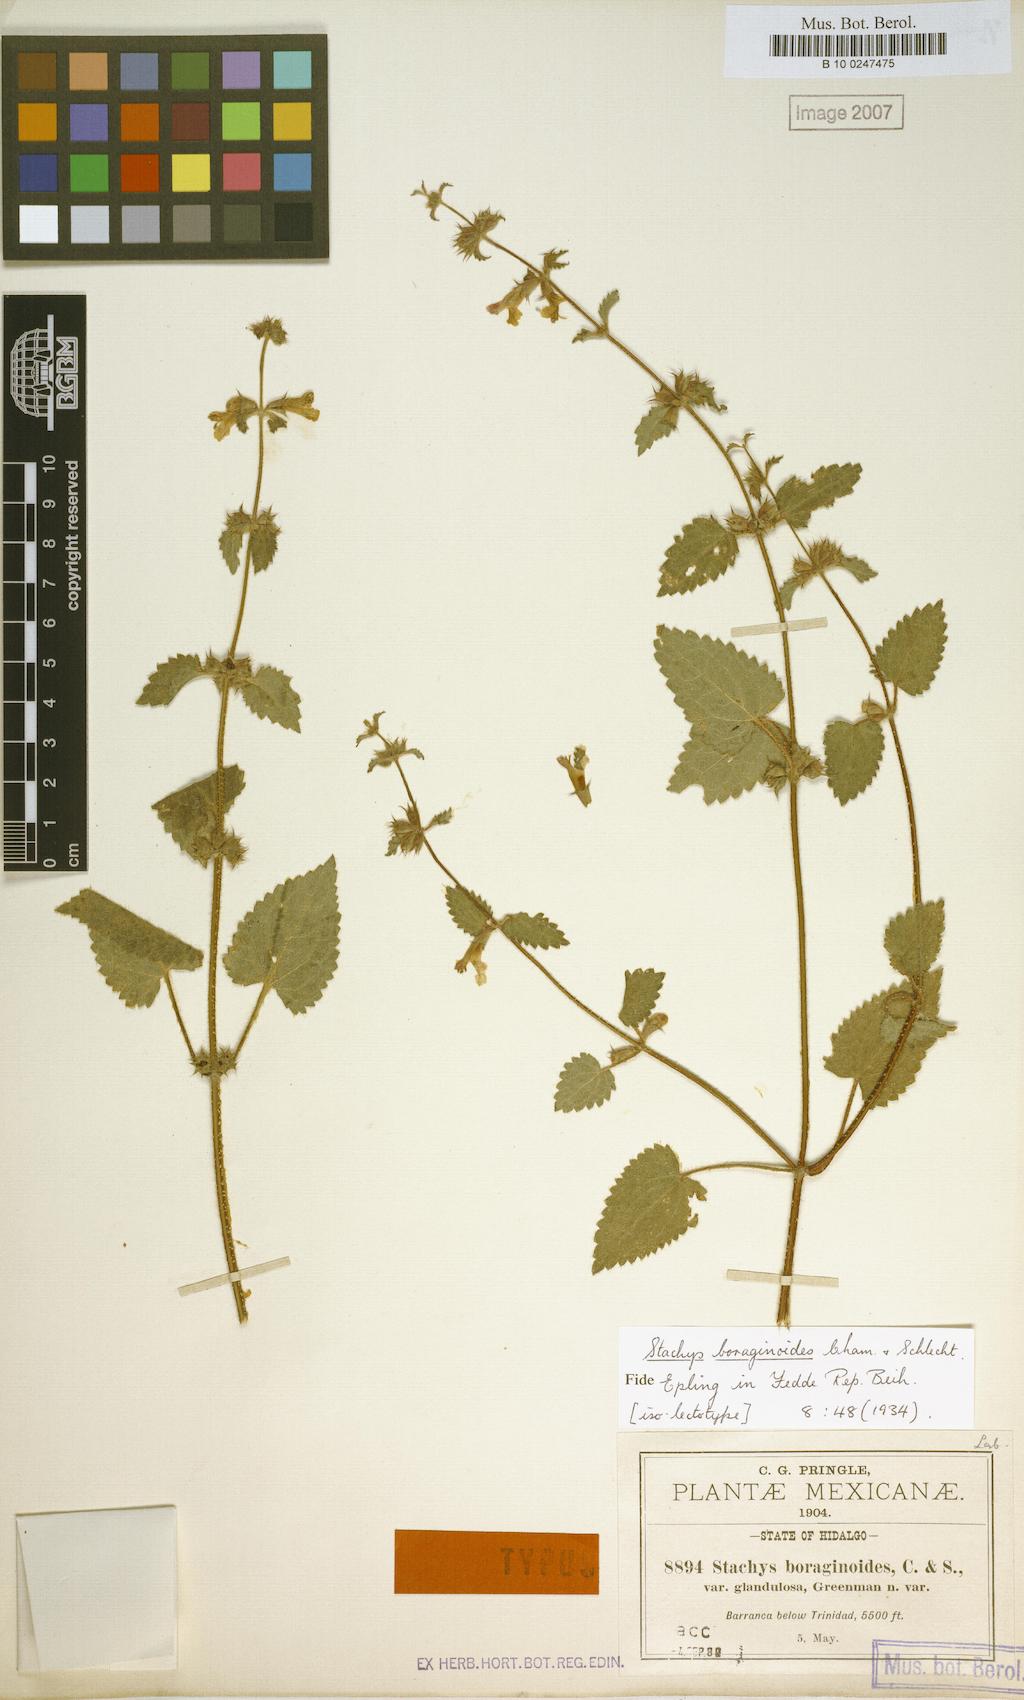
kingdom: Plantae
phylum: Tracheophyta
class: Magnoliopsida
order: Lamiales
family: Lamiaceae
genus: Stachys
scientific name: Stachys boraginoides
